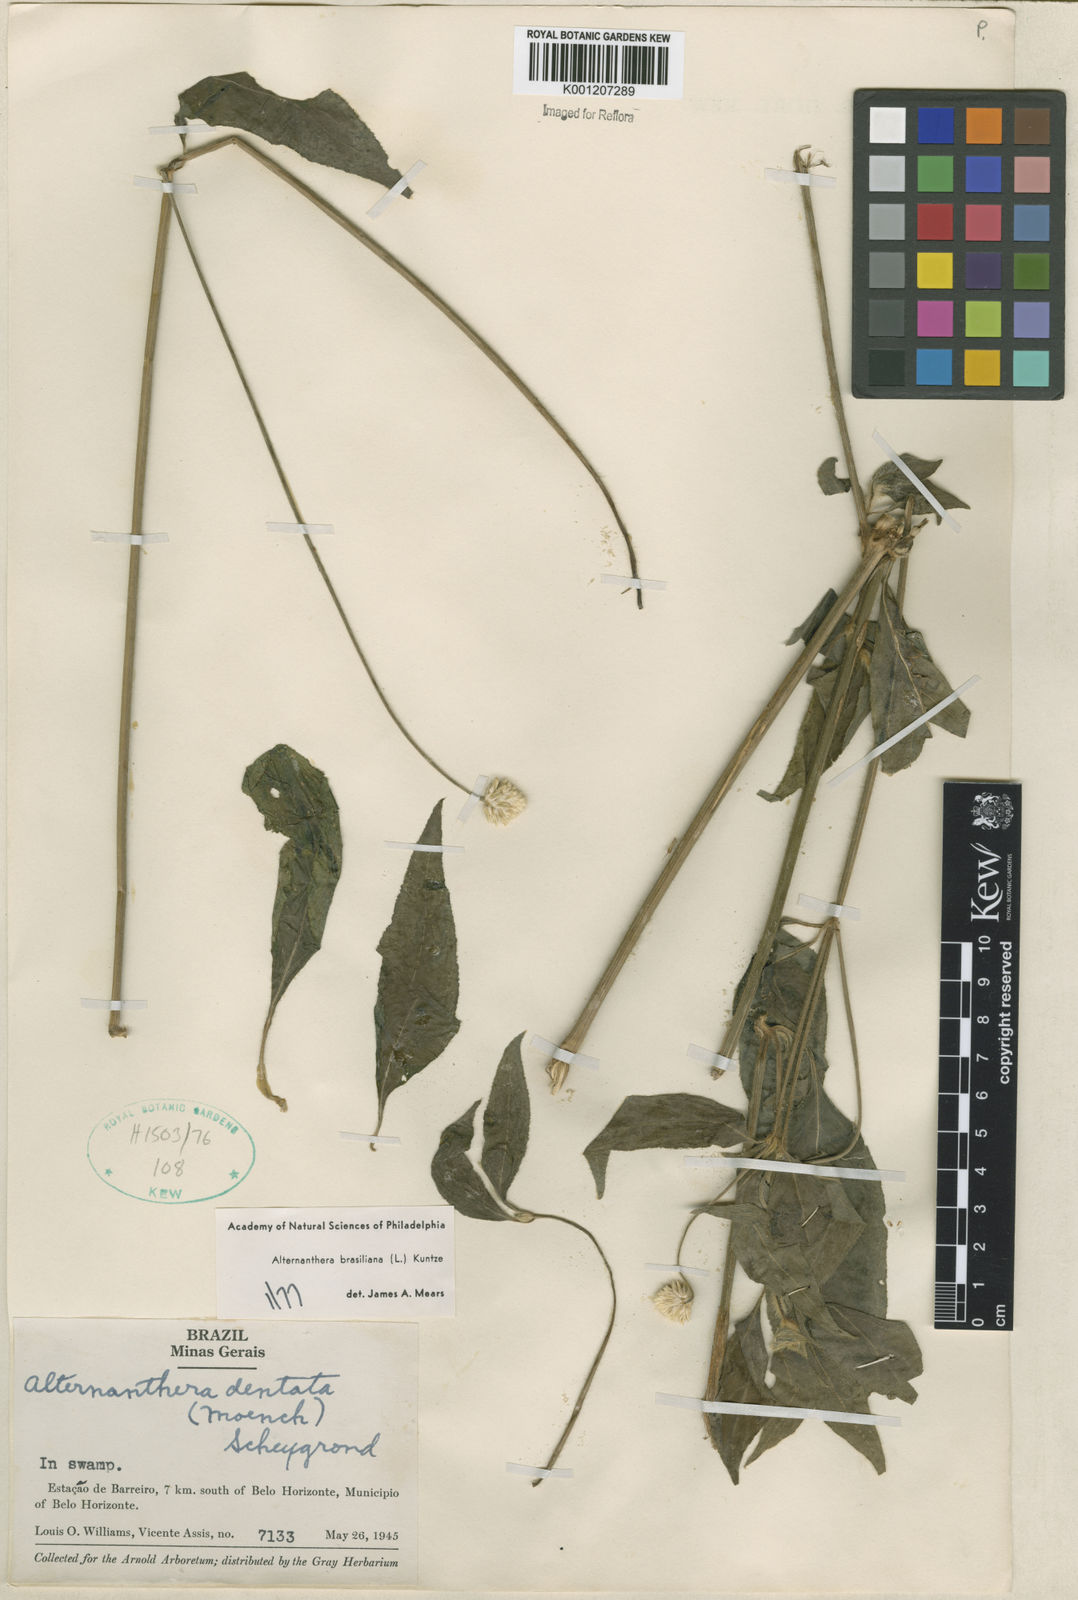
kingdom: Plantae
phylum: Tracheophyta
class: Magnoliopsida
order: Caryophyllales
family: Amaranthaceae
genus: Alternanthera
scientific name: Alternanthera brasiliana
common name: Brazilian joyweed
